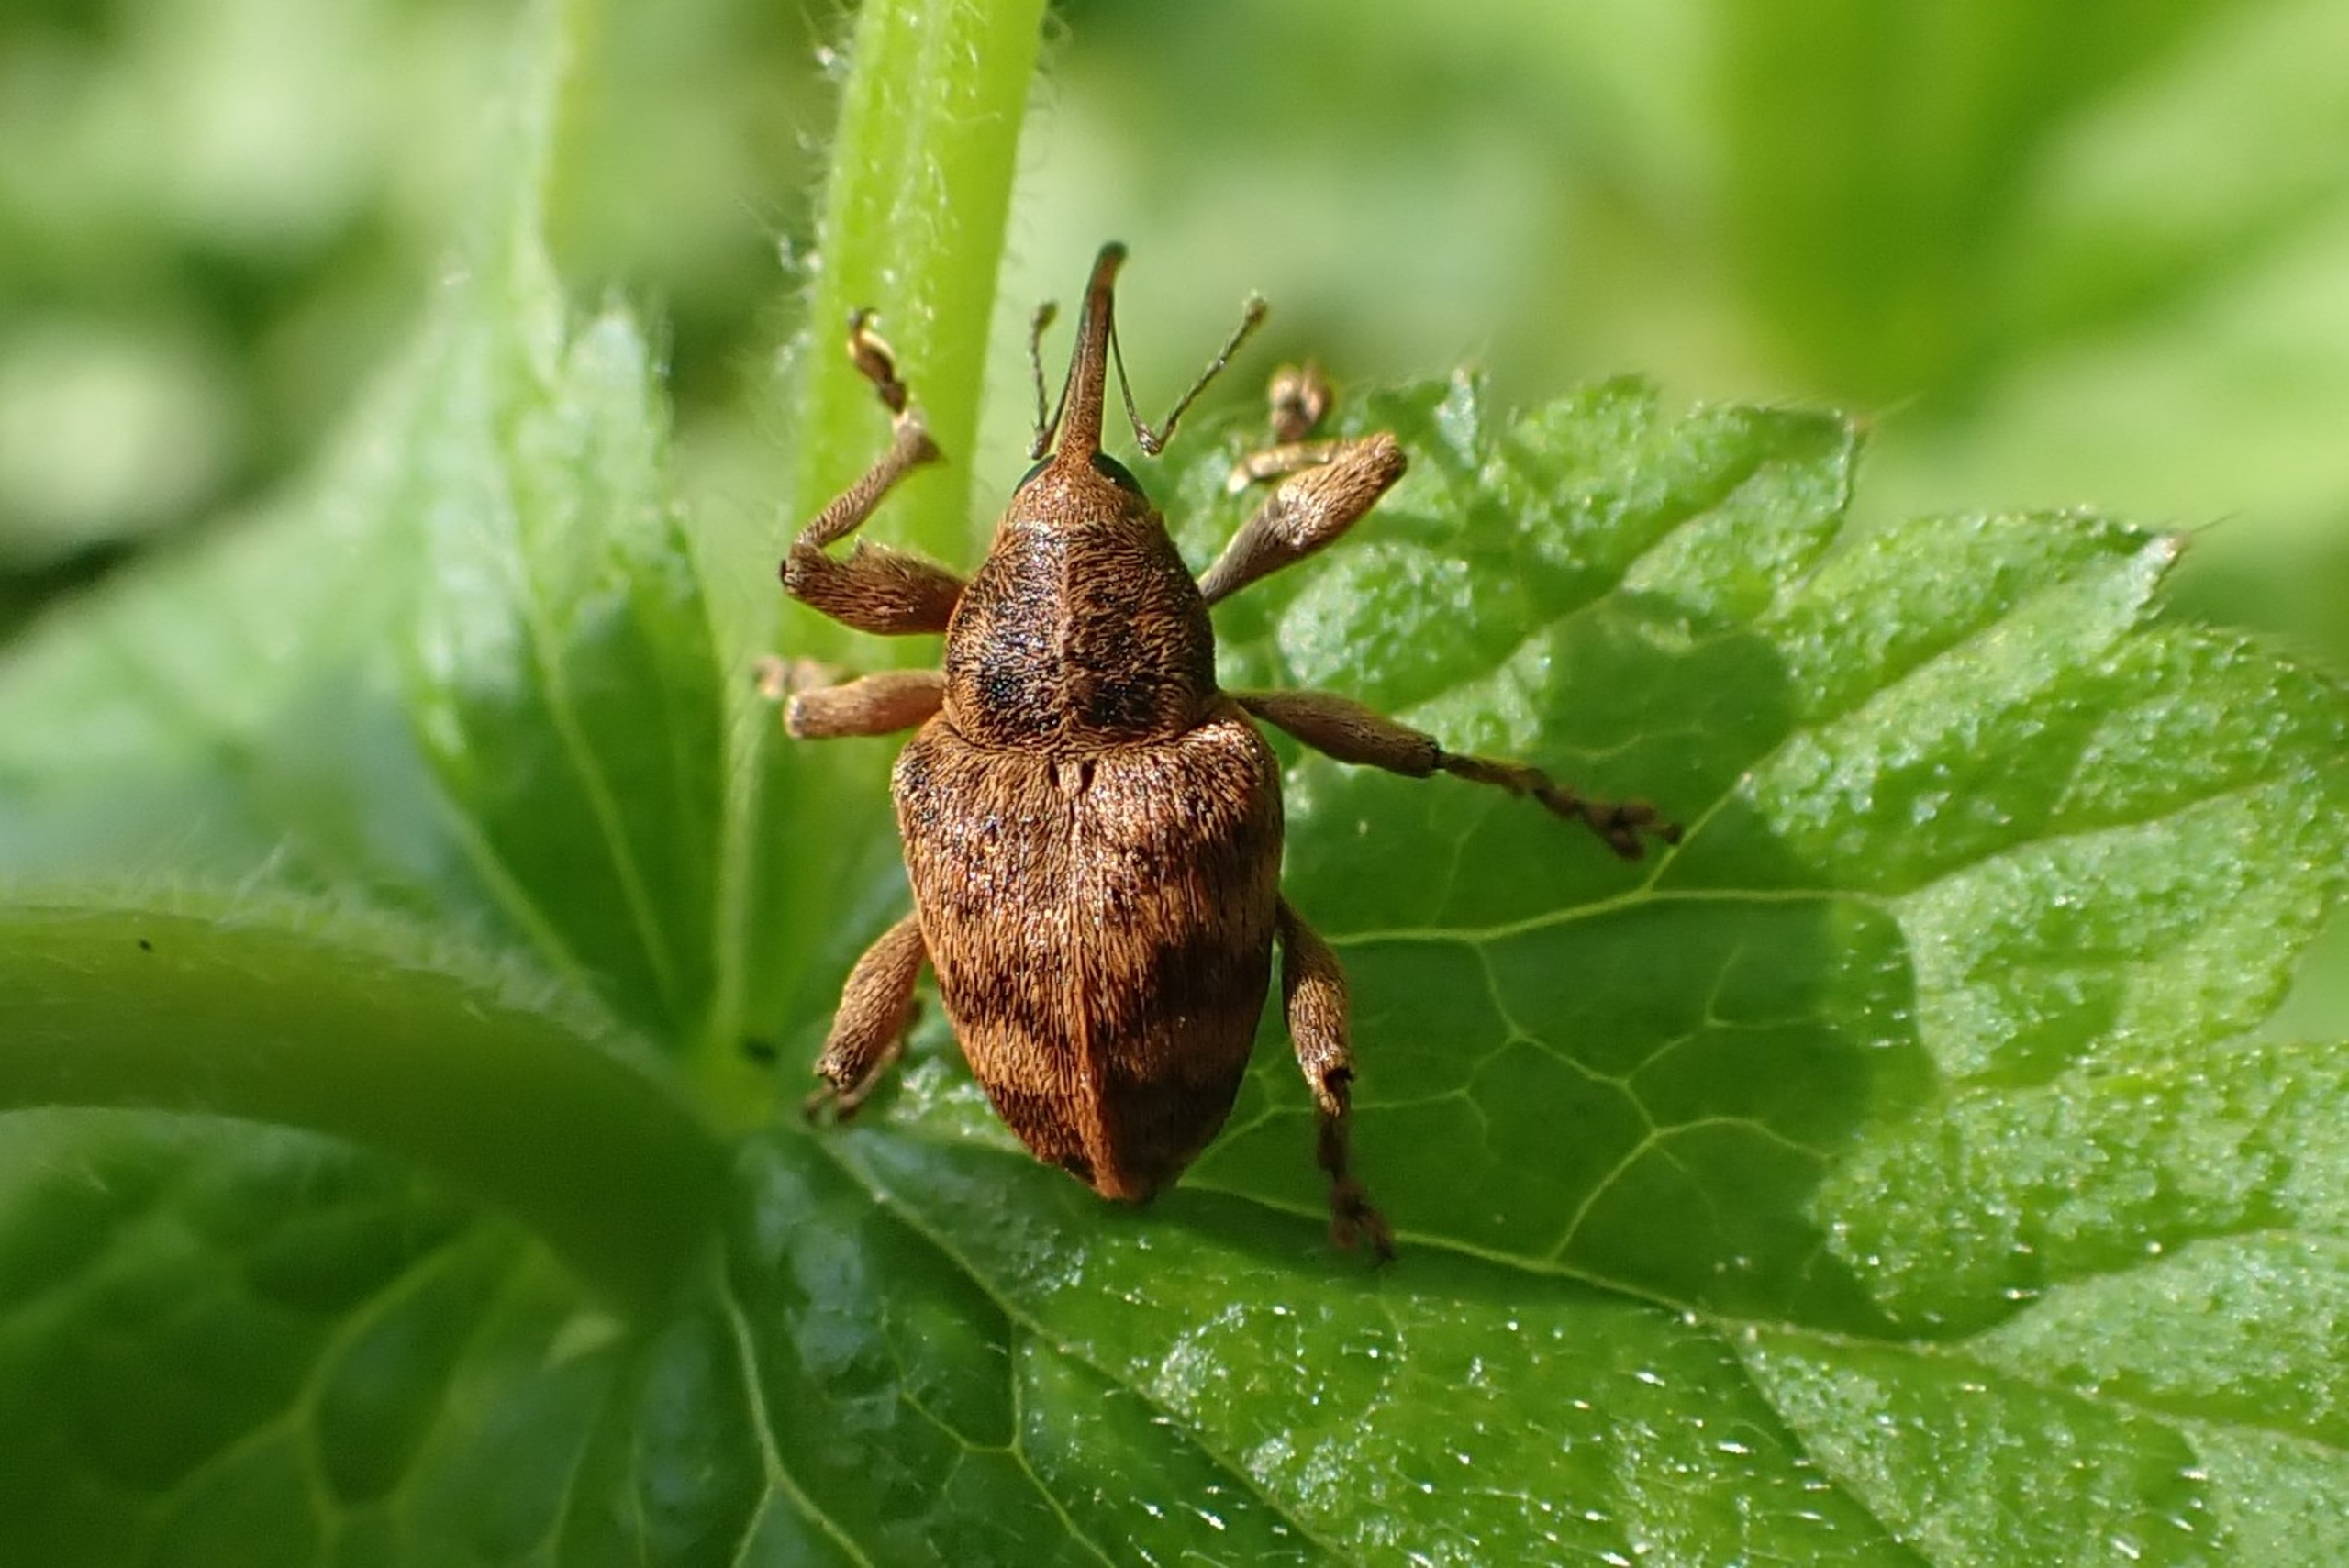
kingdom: Animalia
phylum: Arthropoda
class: Insecta
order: Coleoptera
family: Curculionidae
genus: Curculio
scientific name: Curculio venosus
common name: Agernsnudebille
